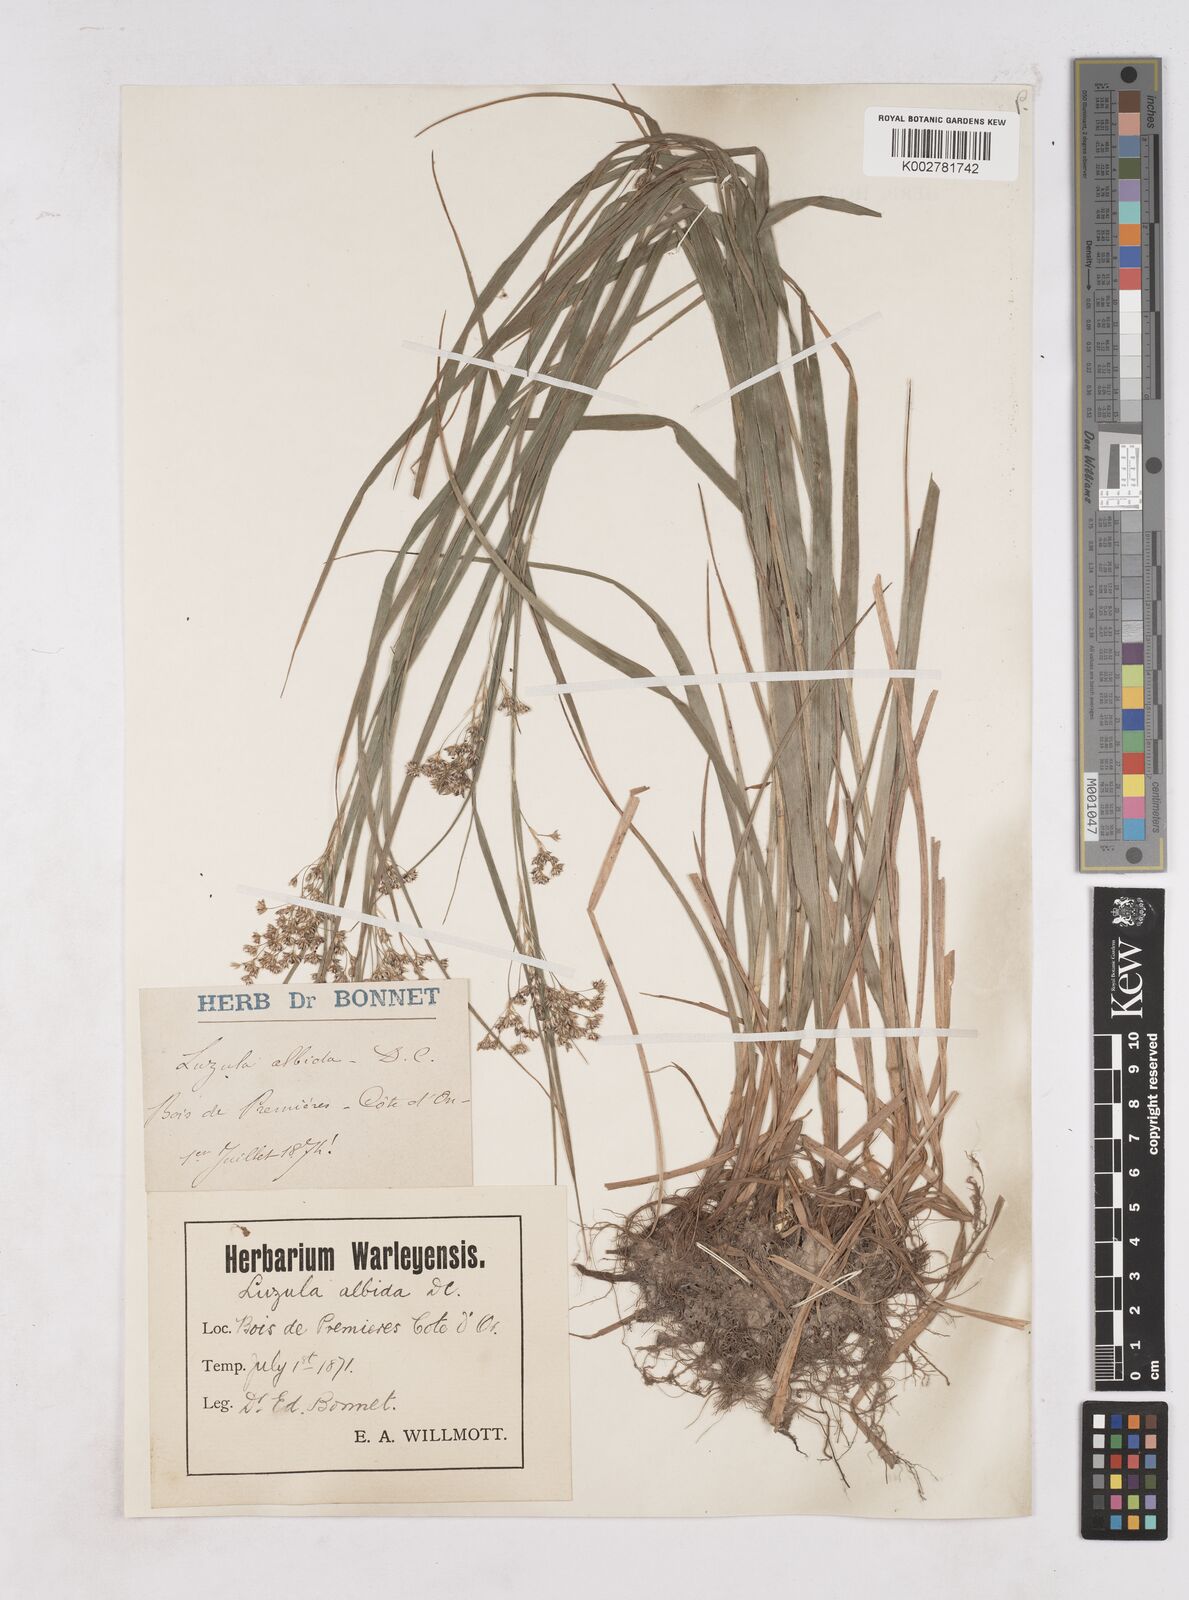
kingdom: Plantae
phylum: Tracheophyta
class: Liliopsida
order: Poales
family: Juncaceae
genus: Luzula
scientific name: Luzula luzuloides
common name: White wood-rush
